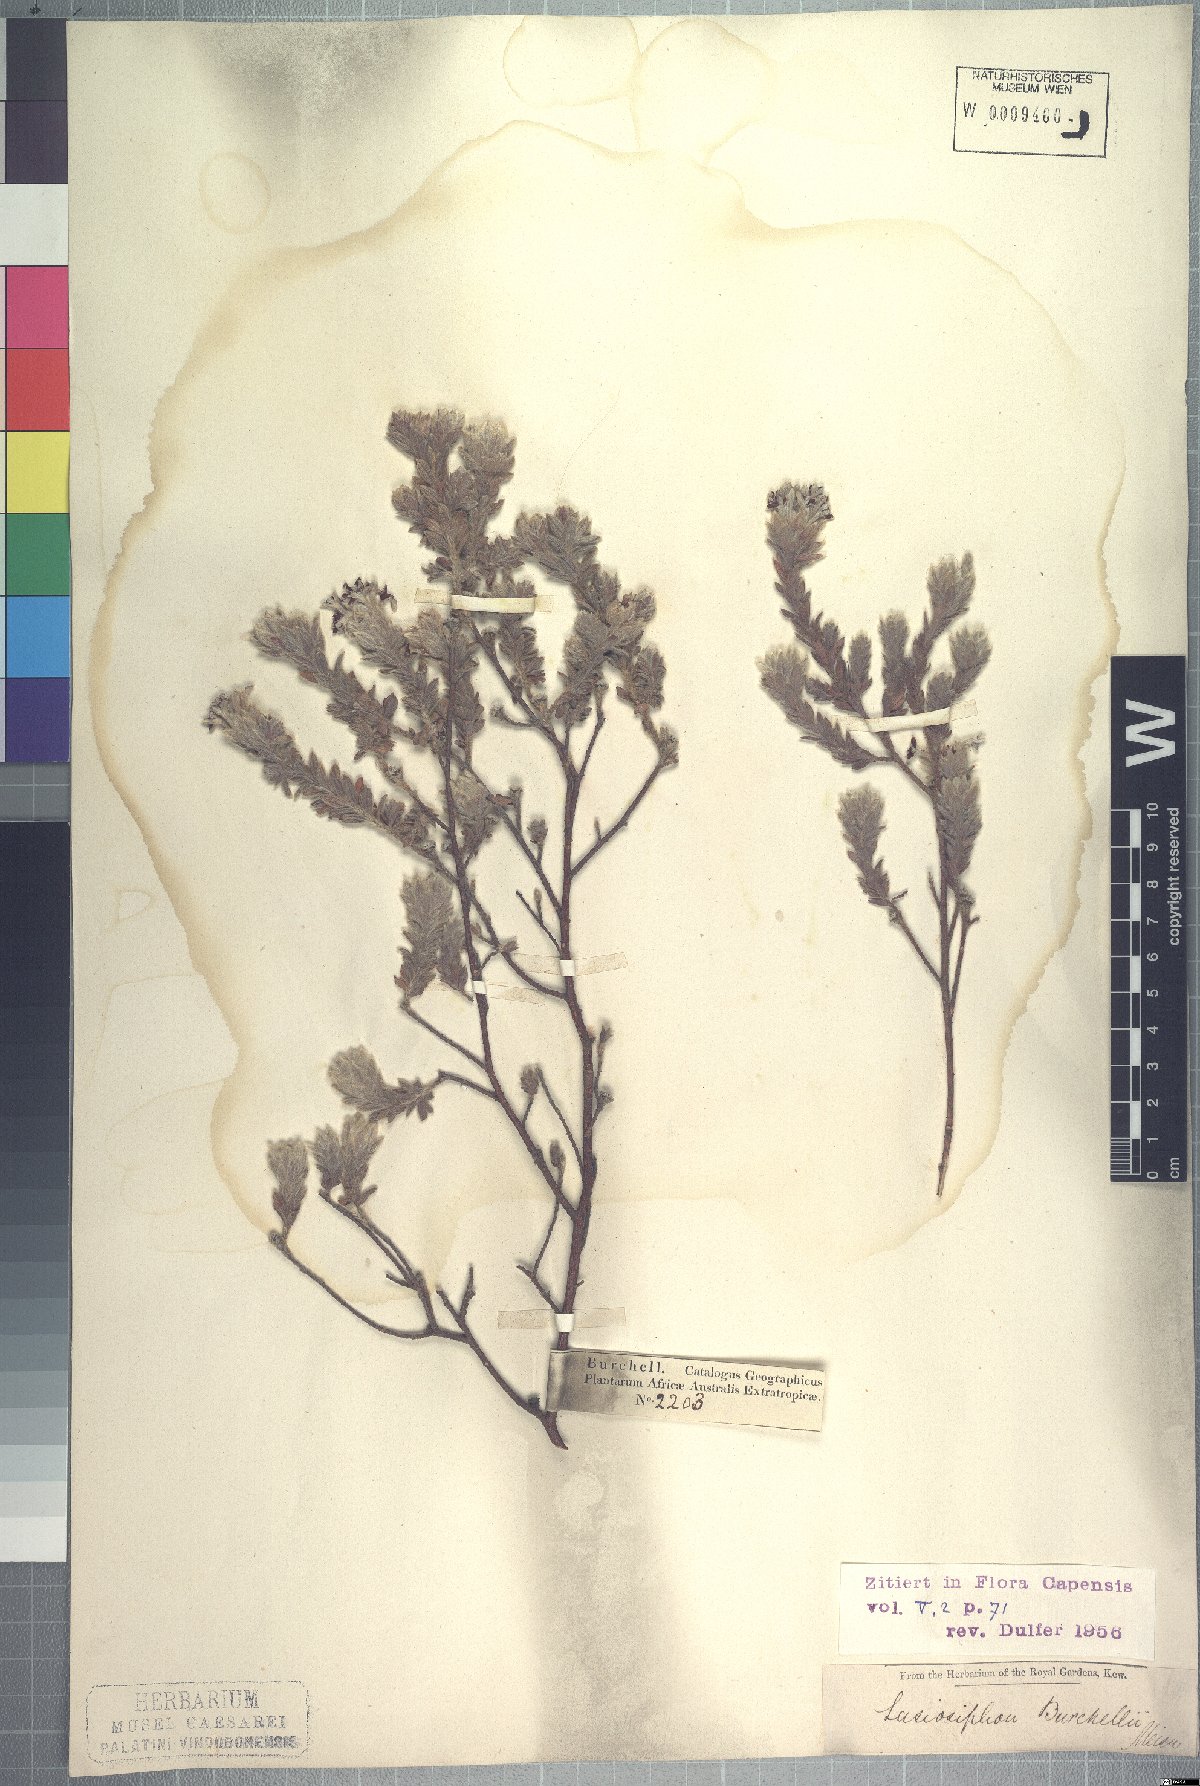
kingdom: Plantae
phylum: Tracheophyta
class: Magnoliopsida
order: Malvales
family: Thymelaeaceae
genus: Gnidia
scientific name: Gnidia burchellii
